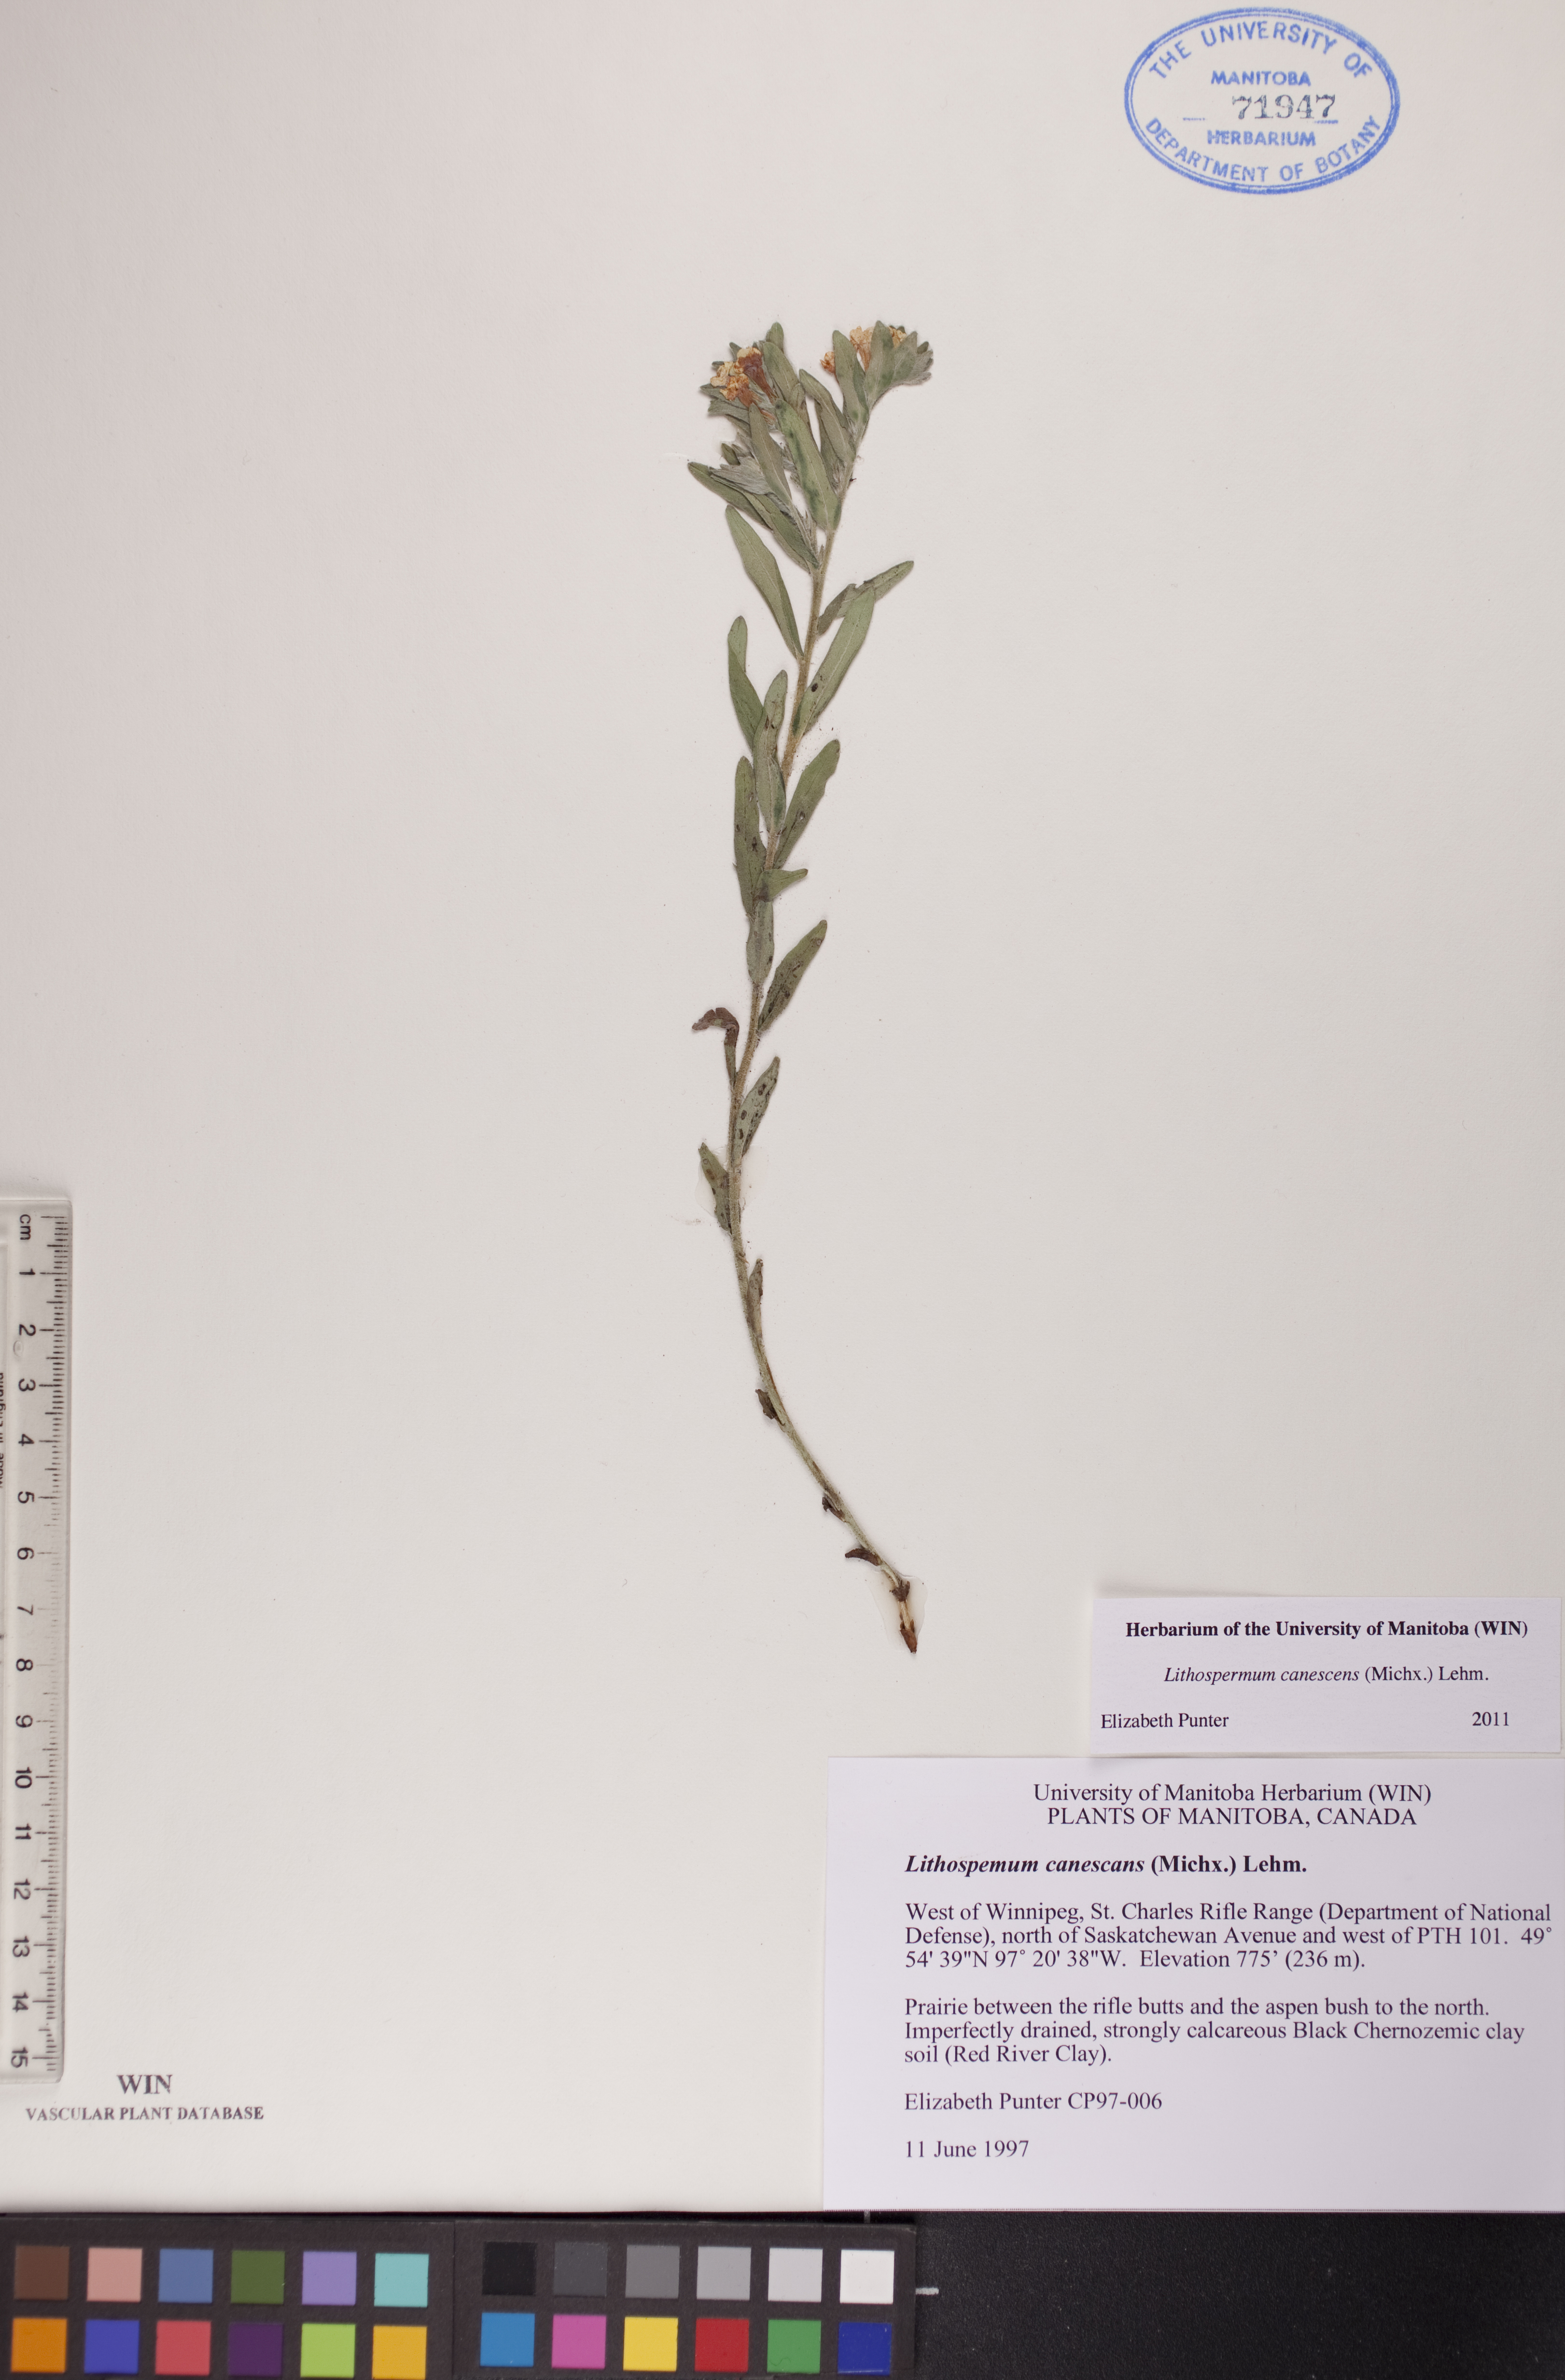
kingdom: Plantae
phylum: Tracheophyta
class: Magnoliopsida
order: Boraginales
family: Boraginaceae
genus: Lithospermum
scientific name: Lithospermum canescens
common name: Hoary puccoon
